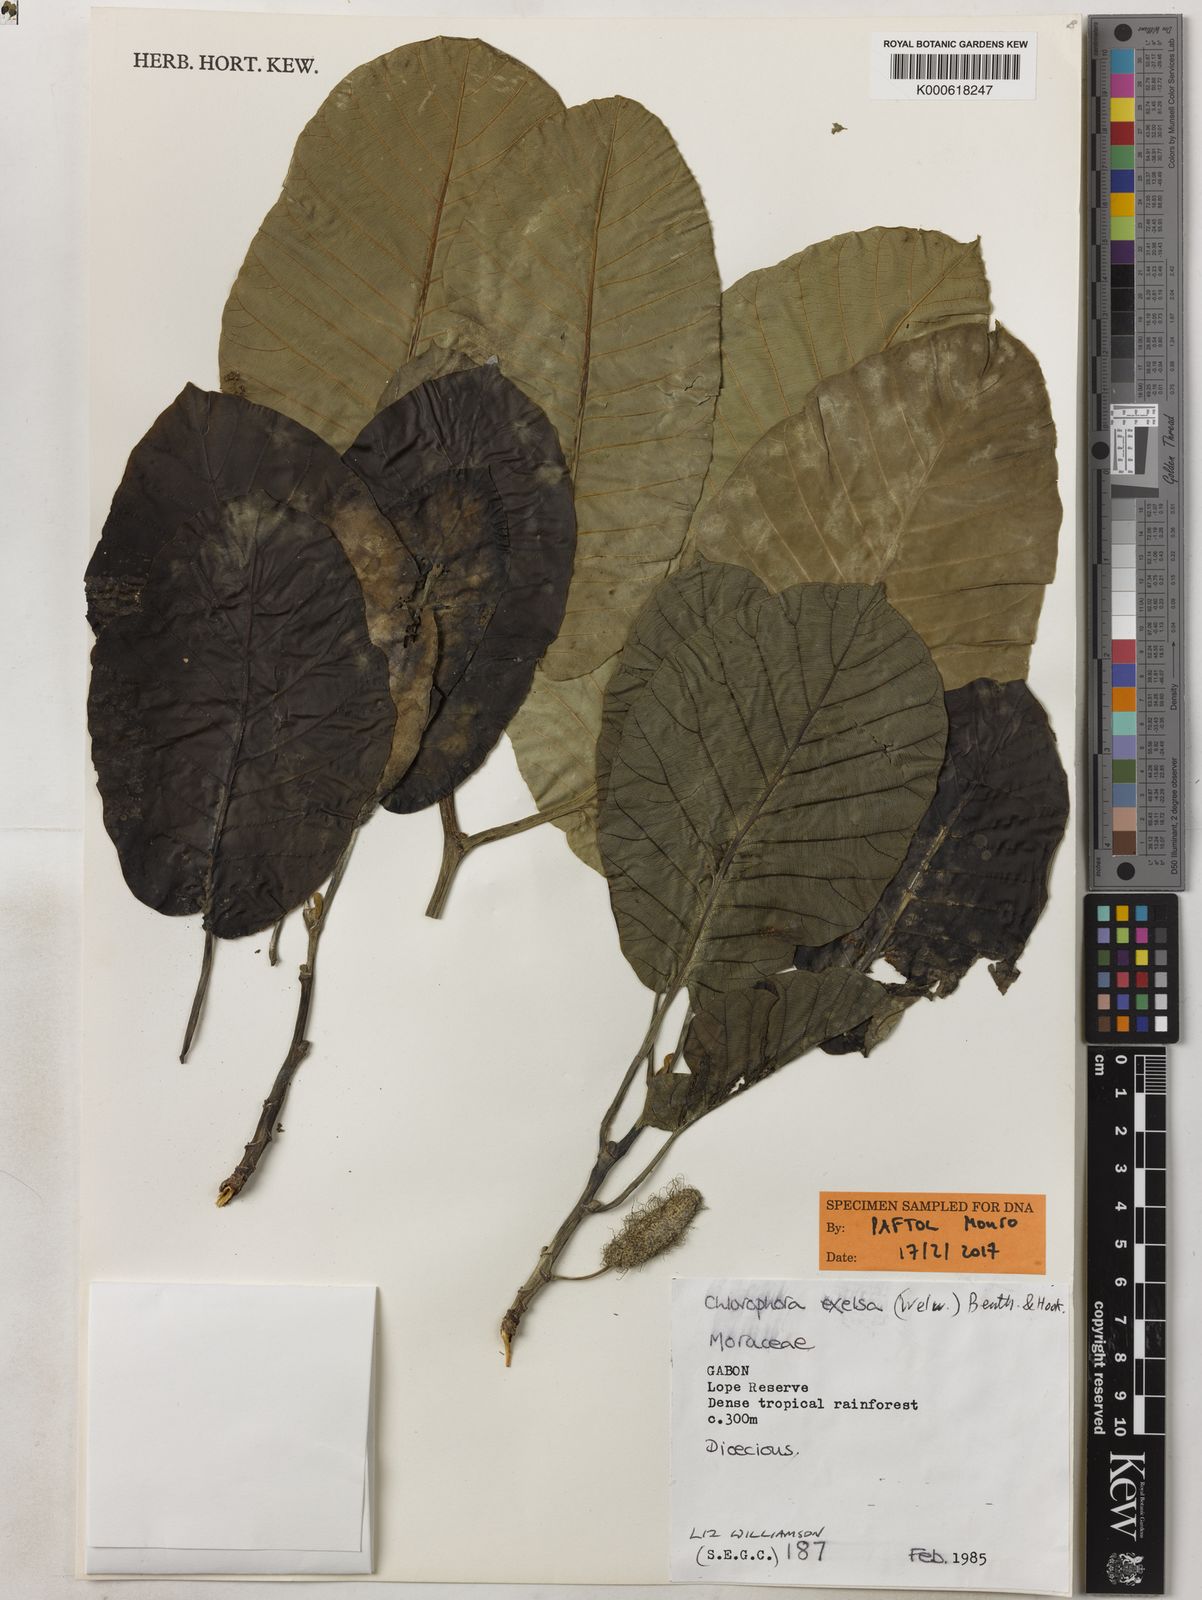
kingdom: Plantae
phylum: Tracheophyta
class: Magnoliopsida
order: Rosales
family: Moraceae
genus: Milicia
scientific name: Milicia excelsa
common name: African teak
